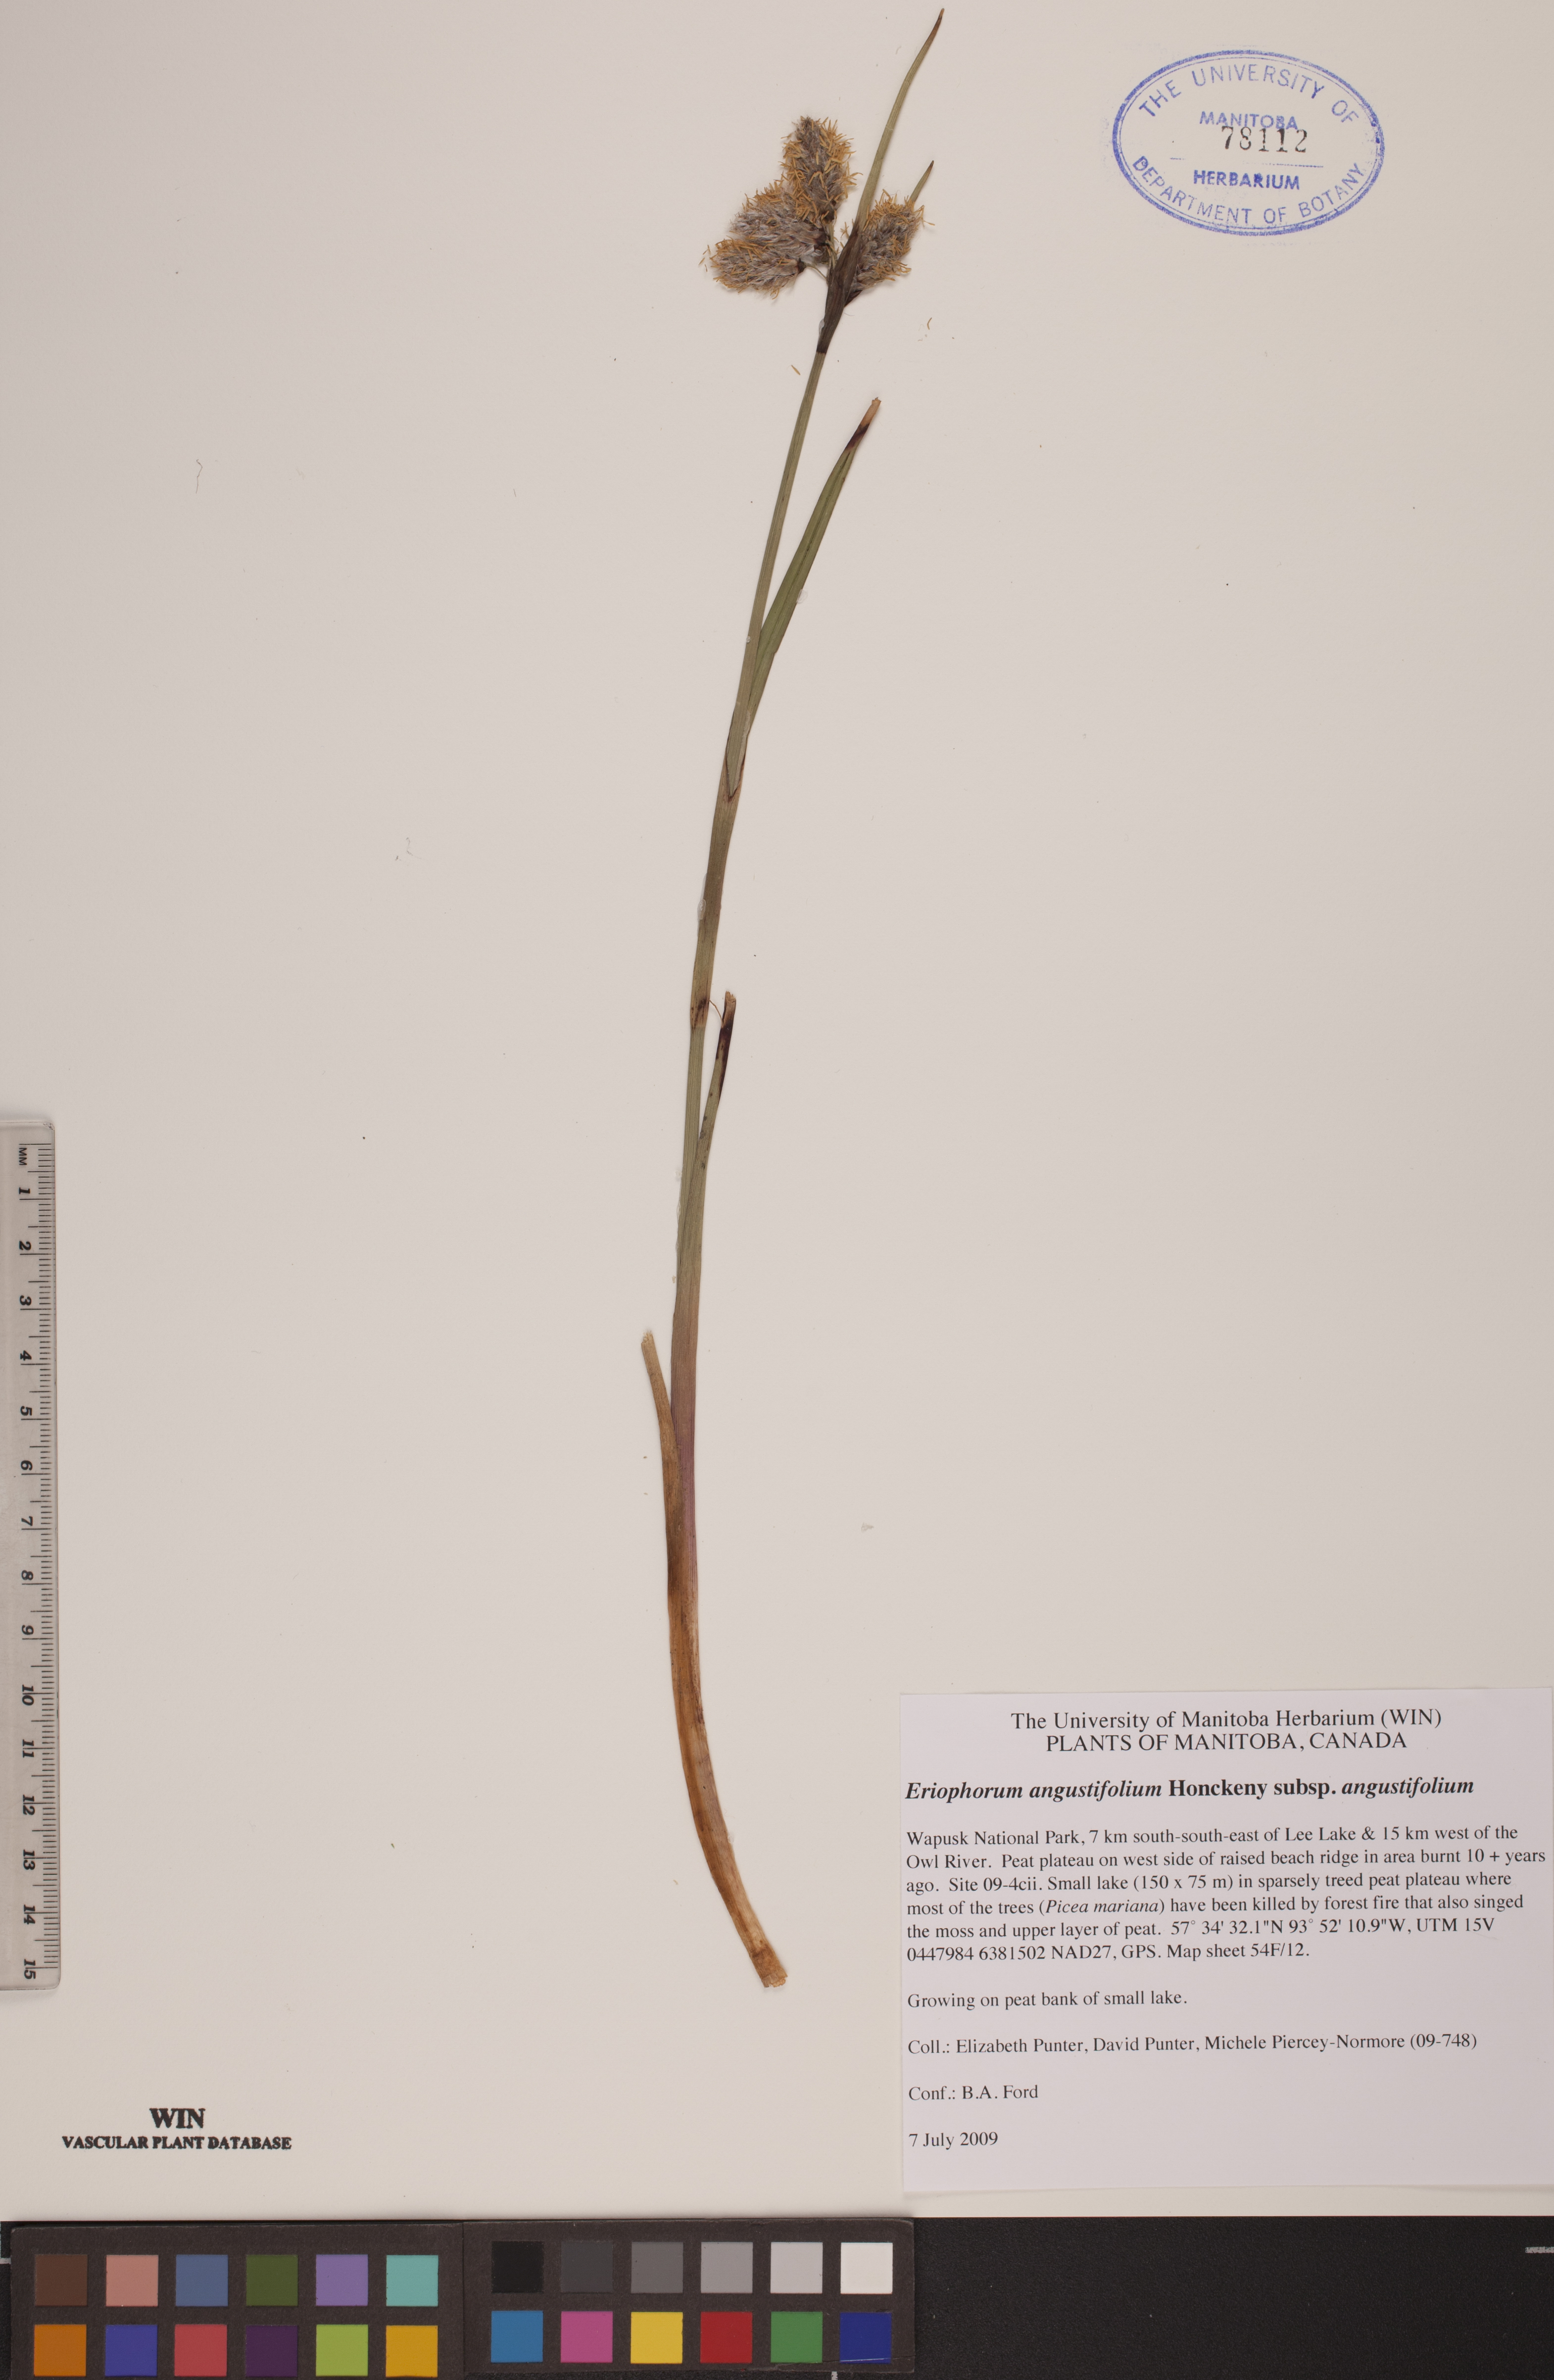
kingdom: Plantae
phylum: Tracheophyta
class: Liliopsida
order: Poales
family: Cyperaceae
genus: Eriophorum
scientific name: Eriophorum angustifolium
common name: Common cottongrass
